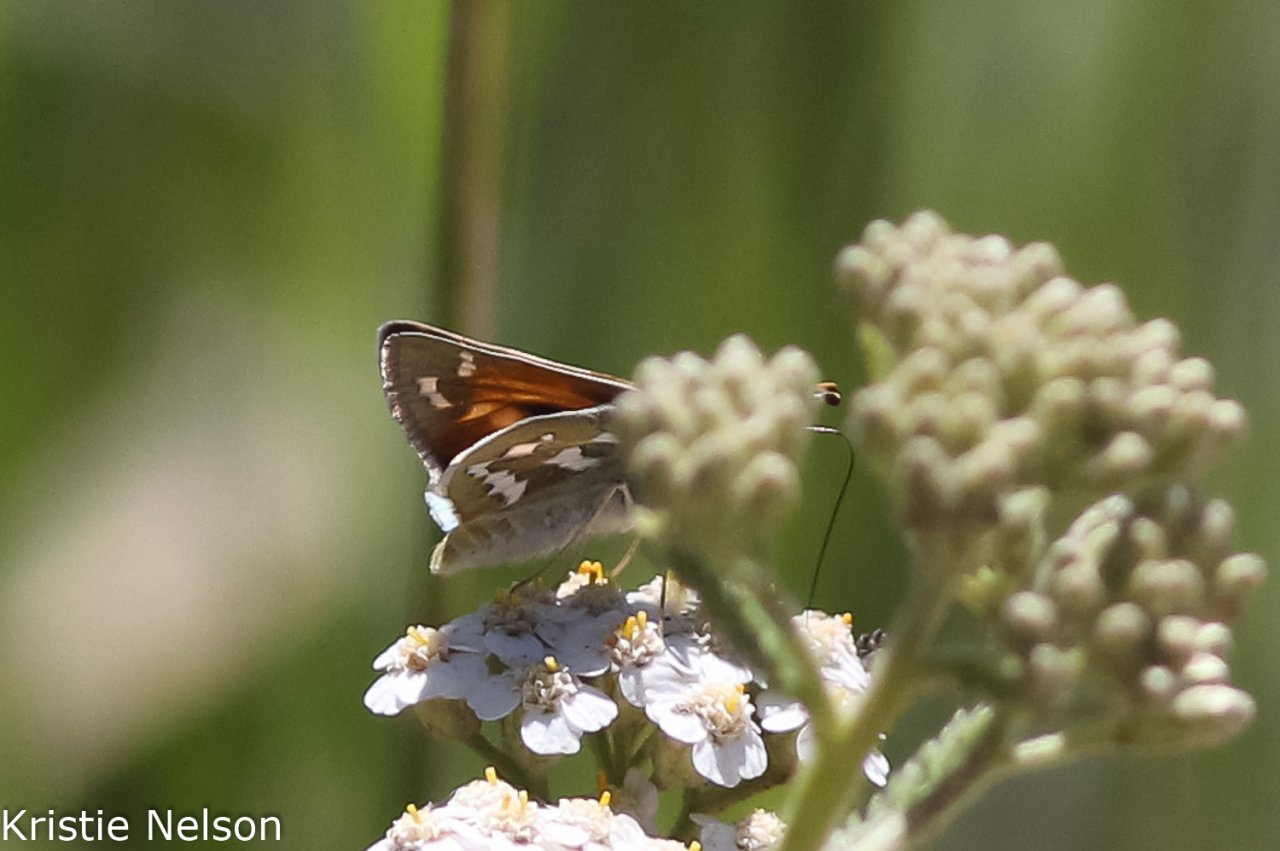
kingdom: Animalia
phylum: Arthropoda
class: Insecta
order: Lepidoptera
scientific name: Lepidoptera
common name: Butterflies
